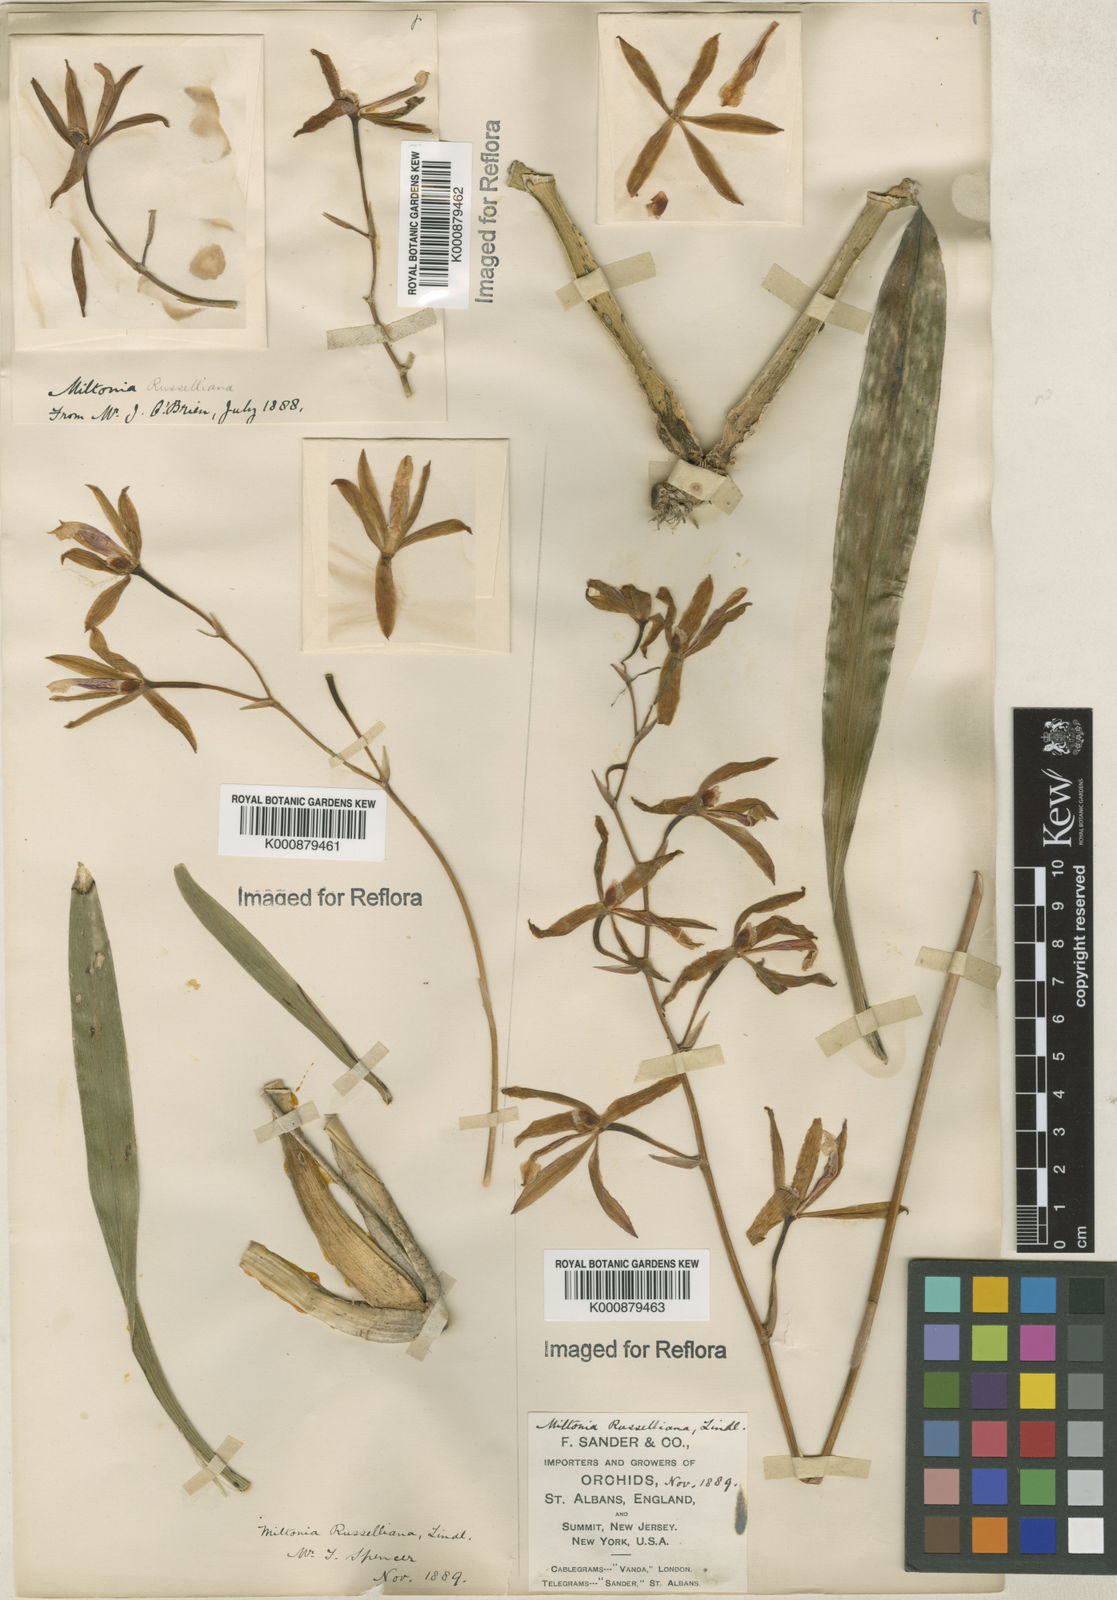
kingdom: Plantae
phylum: Tracheophyta
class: Liliopsida
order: Asparagales
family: Orchidaceae
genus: Miltonia
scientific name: Miltonia russelliana
